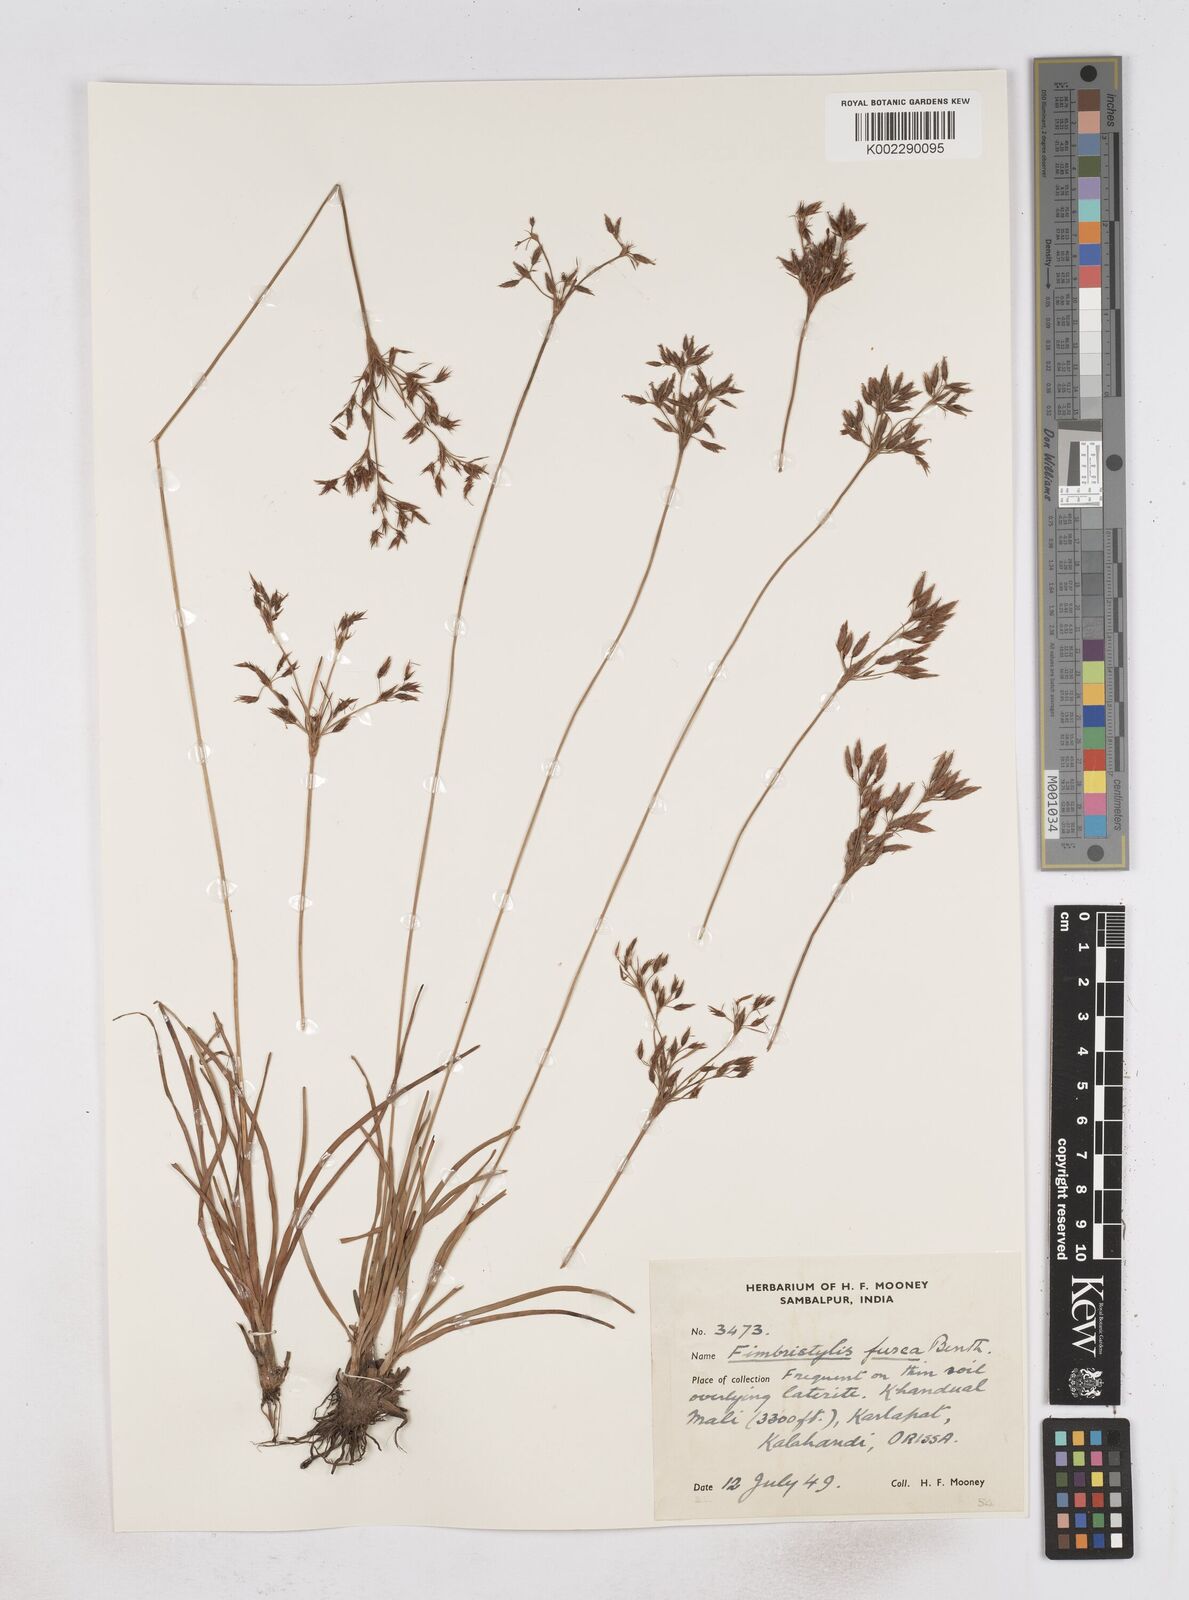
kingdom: Plantae
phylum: Tracheophyta
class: Liliopsida
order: Poales
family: Cyperaceae
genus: Fimbristylis
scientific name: Fimbristylis fusca
